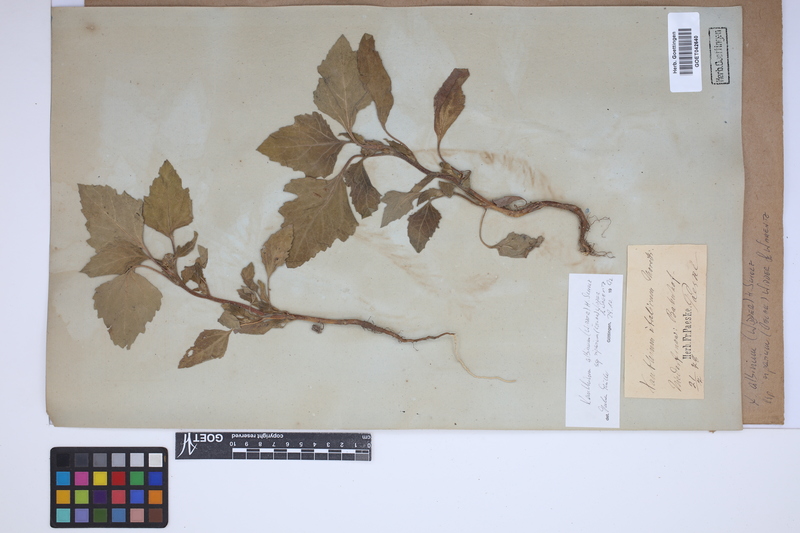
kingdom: Plantae
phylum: Tracheophyta
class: Magnoliopsida
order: Asterales
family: Asteraceae
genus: Xanthium
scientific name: Xanthium orientale
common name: Californian burr
